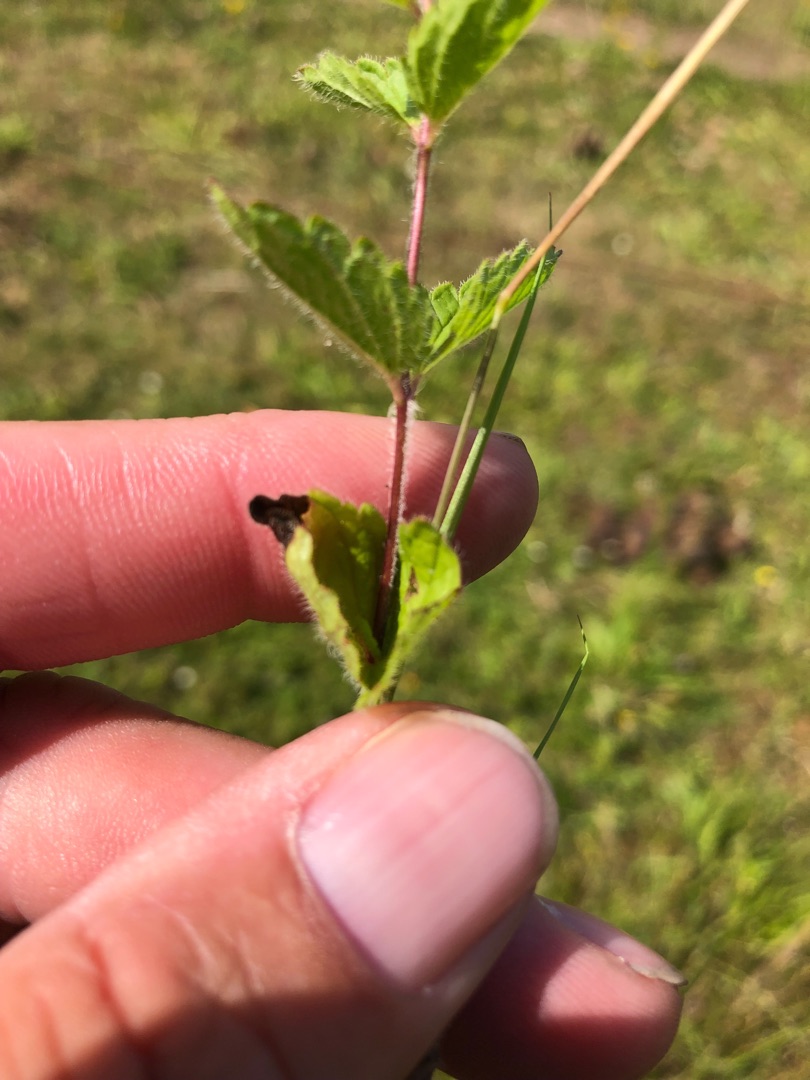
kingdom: Plantae
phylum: Tracheophyta
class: Magnoliopsida
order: Lamiales
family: Plantaginaceae
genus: Veronica
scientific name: Veronica chamaedrys
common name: Tveskægget ærenpris
